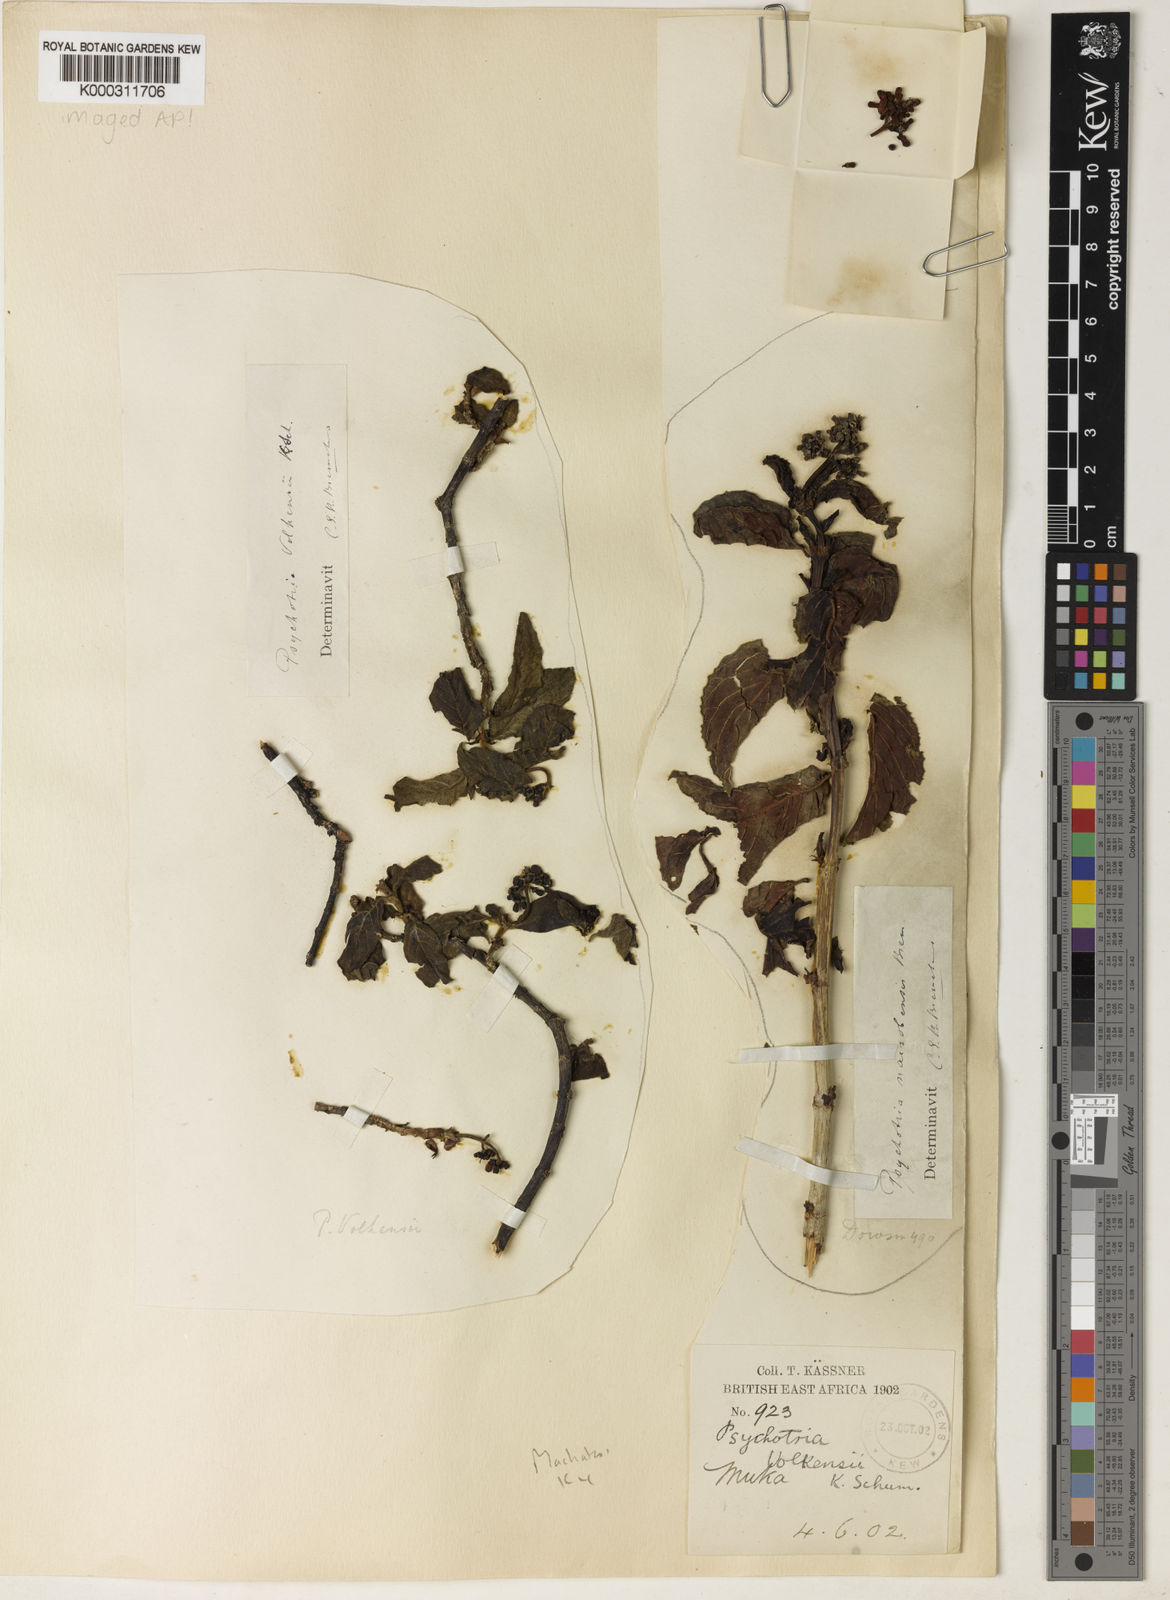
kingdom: Plantae
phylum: Tracheophyta
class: Magnoliopsida
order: Gentianales
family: Rubiaceae
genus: Psychotria
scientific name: Psychotria punctata
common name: Dotted wild coffee
